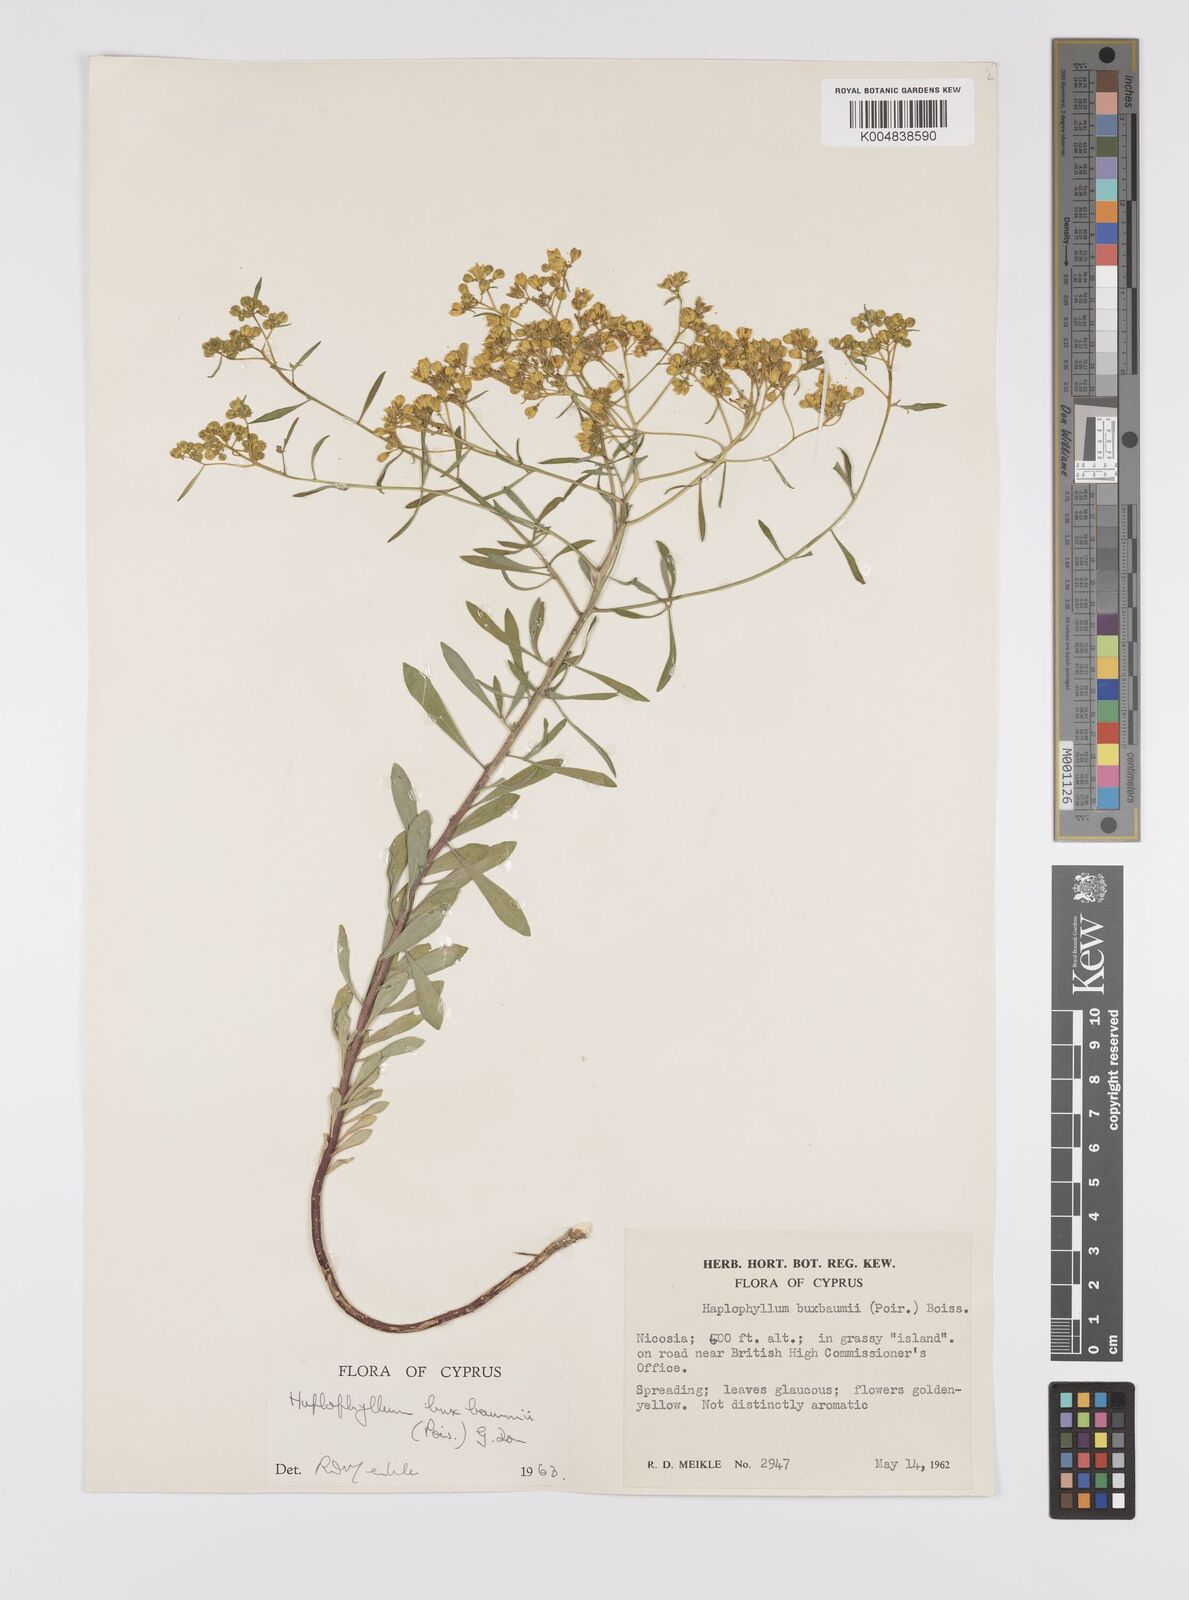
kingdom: Plantae
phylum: Tracheophyta
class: Magnoliopsida
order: Sapindales
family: Rutaceae
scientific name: Rutaceae
